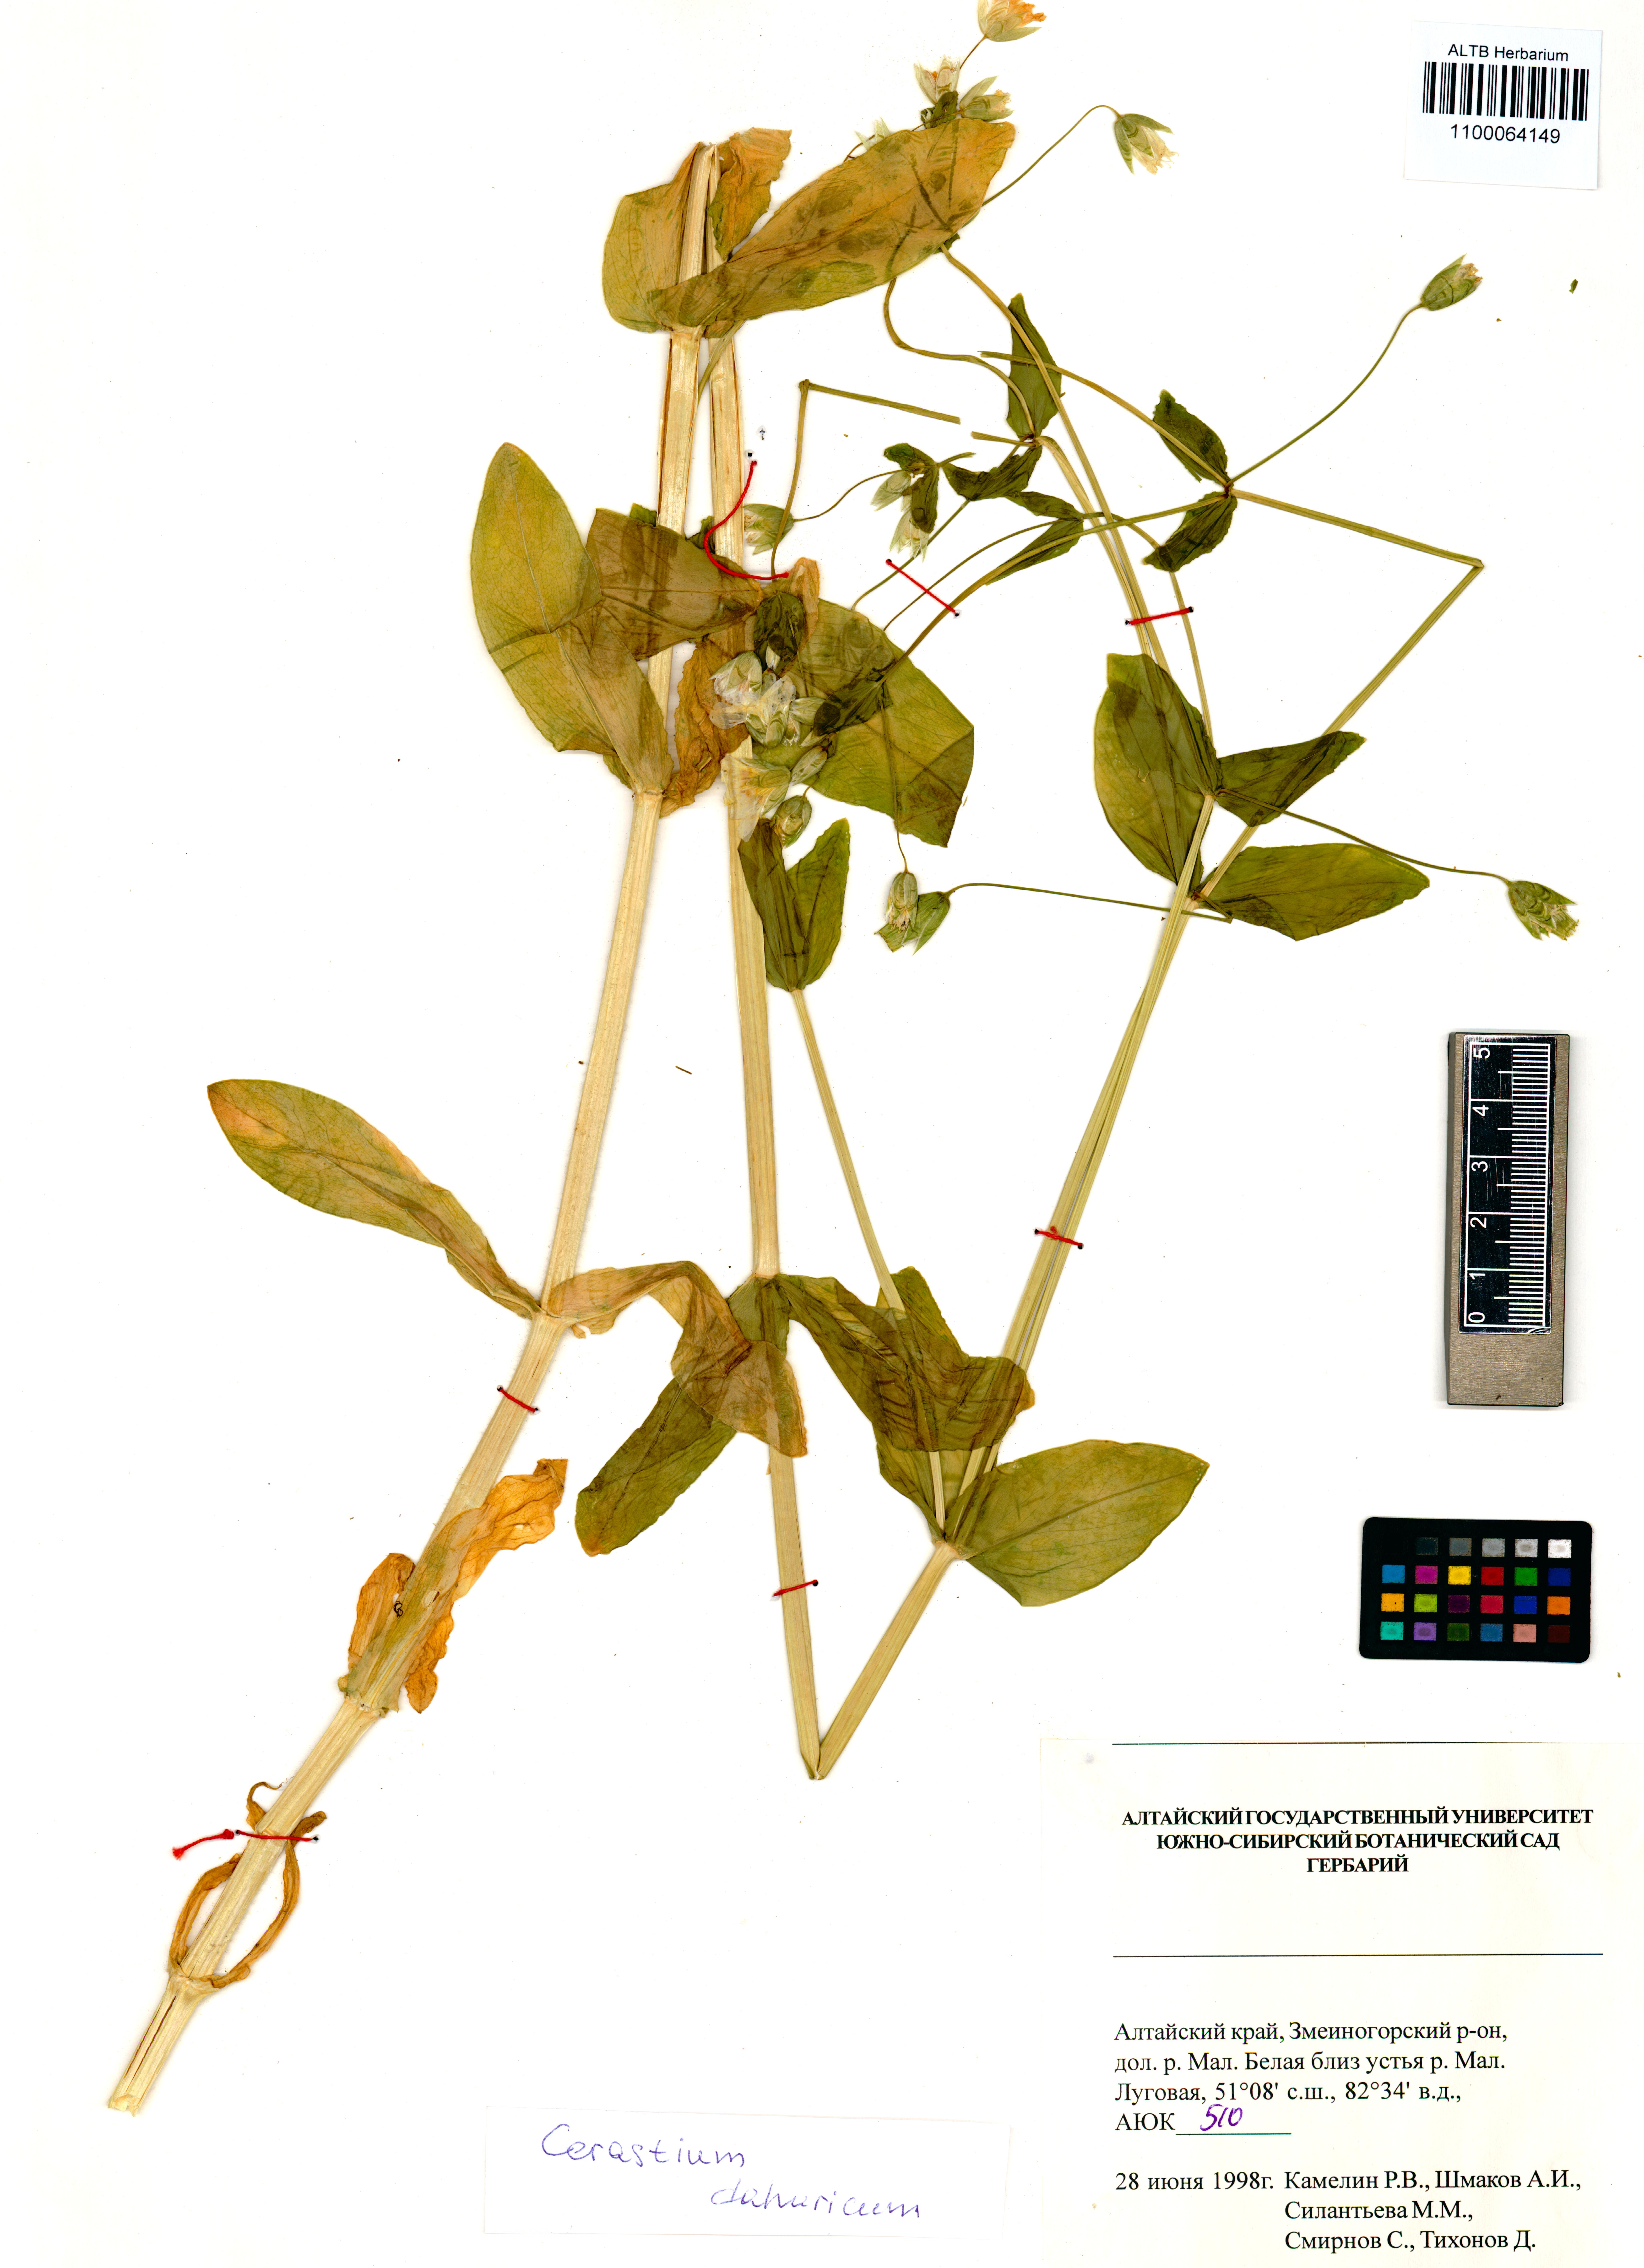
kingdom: Plantae
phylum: Tracheophyta
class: Magnoliopsida
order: Caryophyllales
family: Caryophyllaceae
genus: Dichodon
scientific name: Dichodon davuricum
